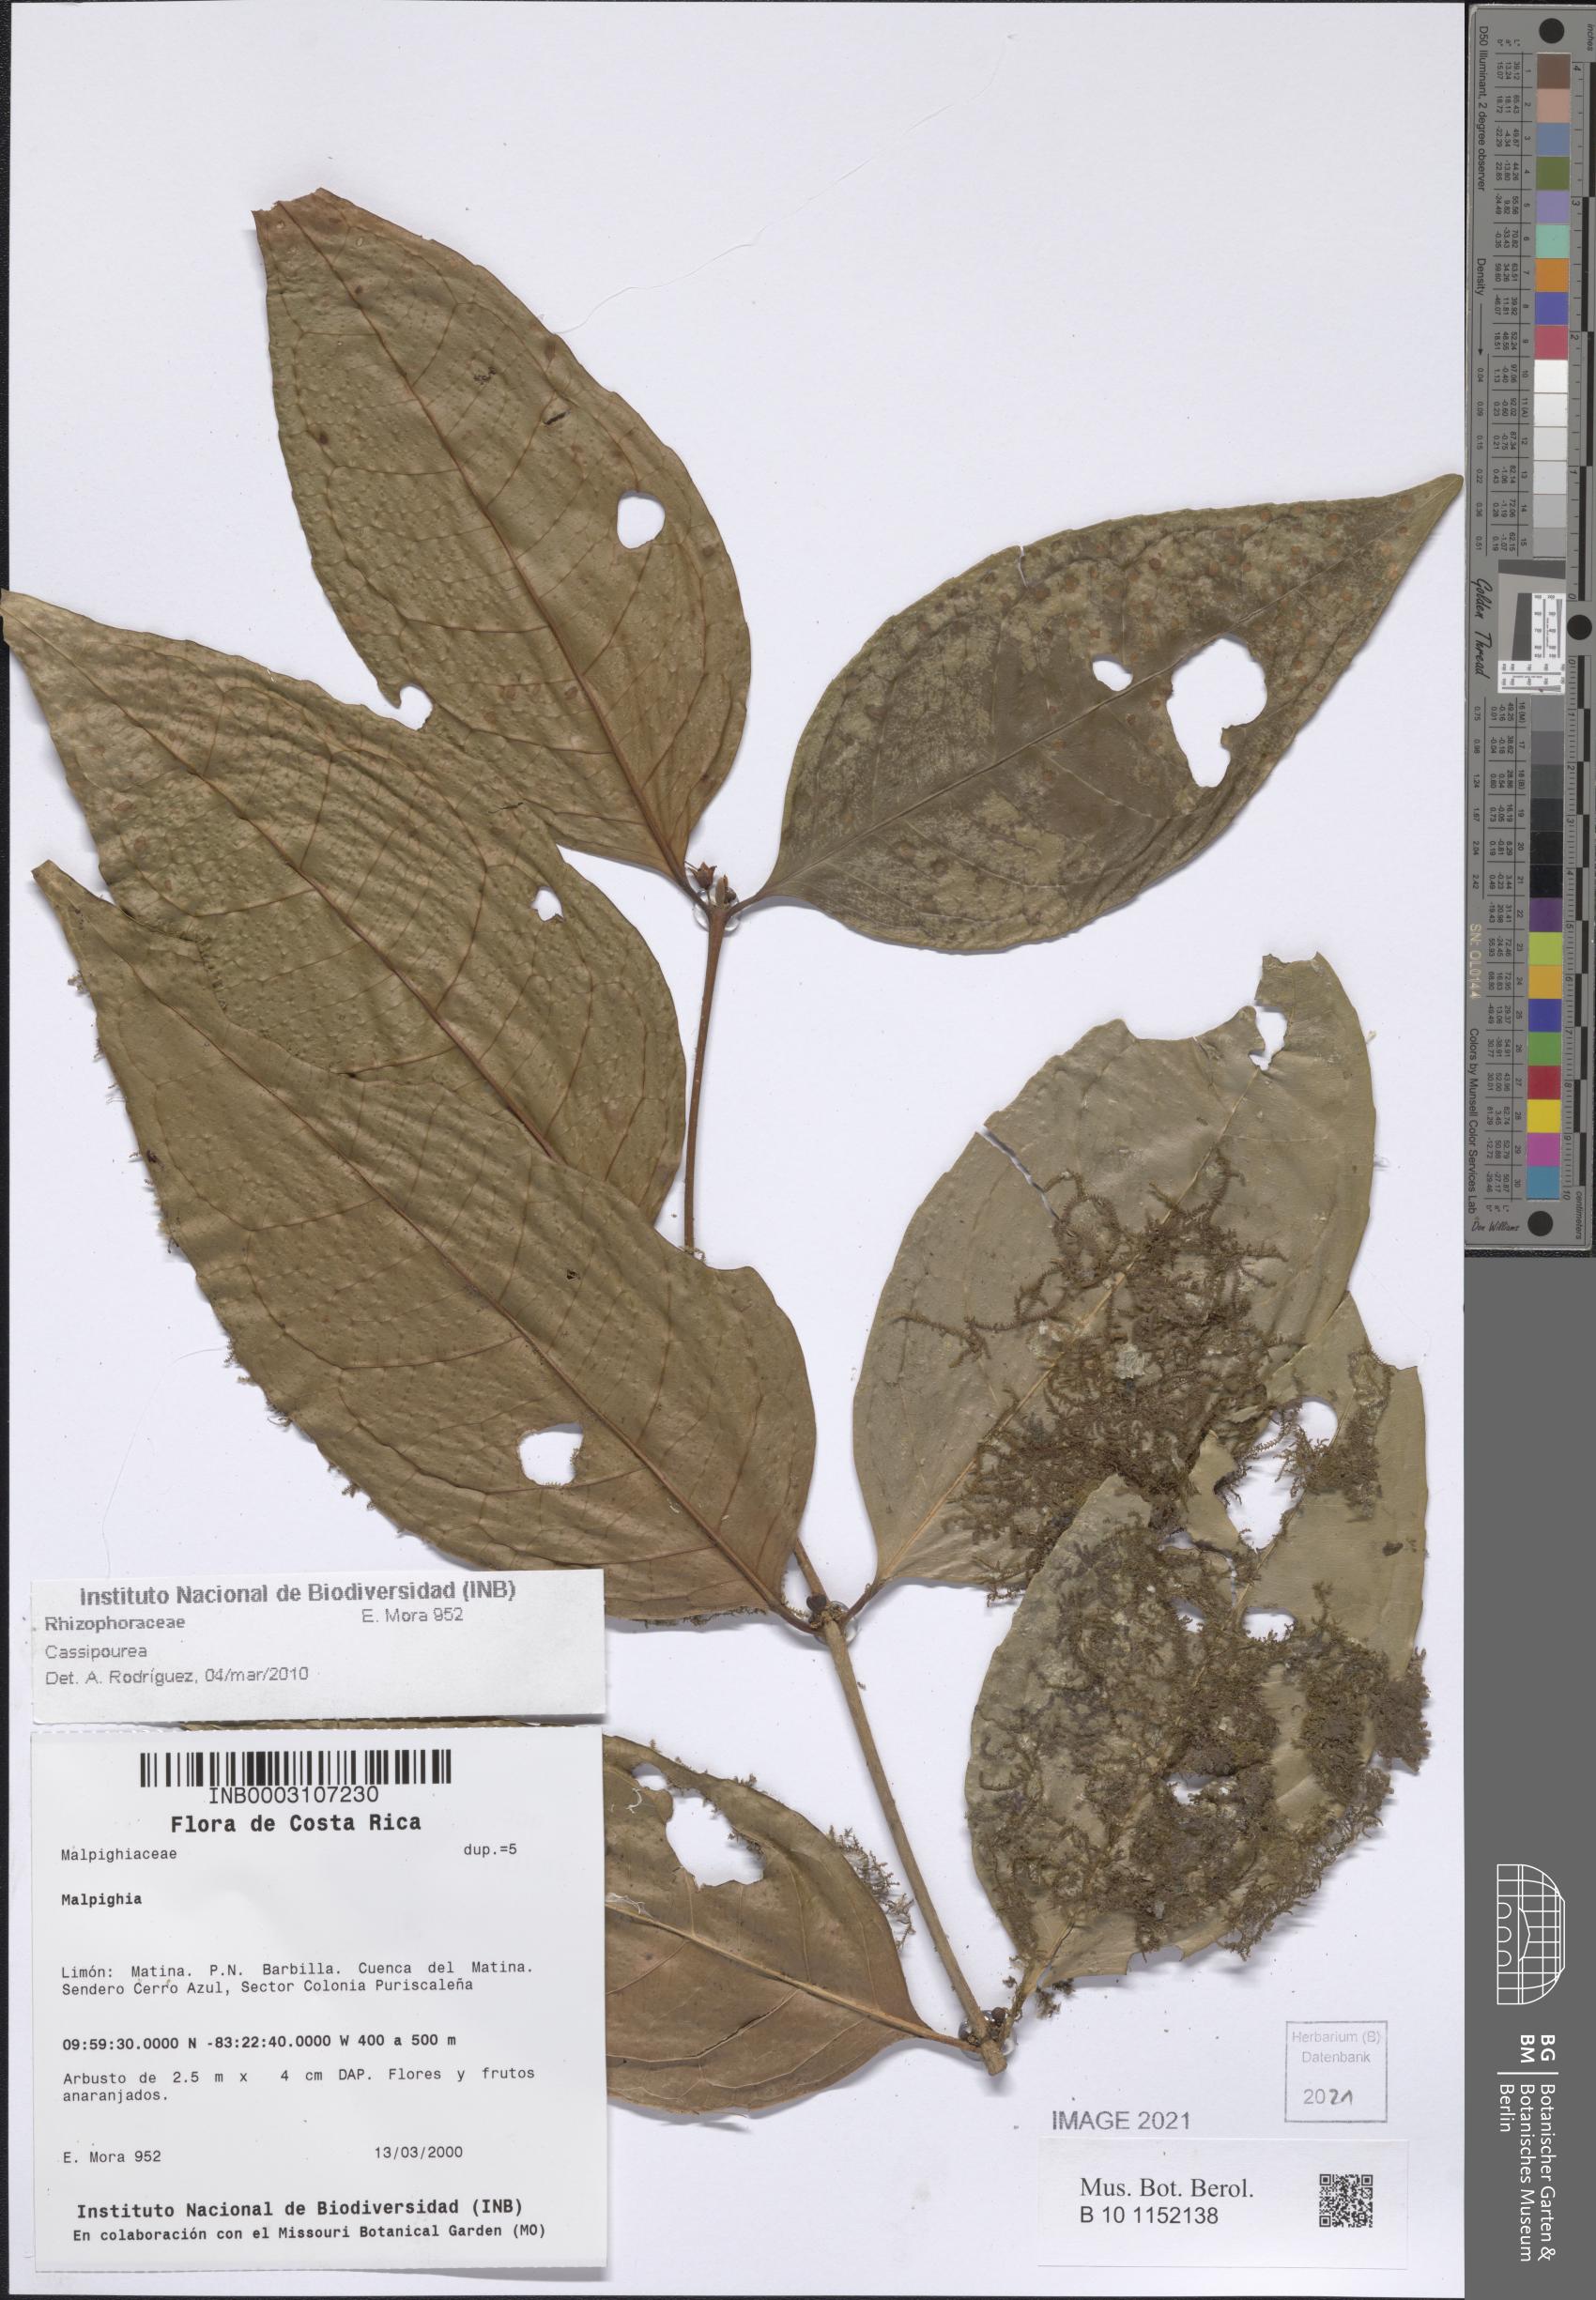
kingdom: Plantae
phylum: Tracheophyta
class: Magnoliopsida
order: Malpighiales
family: Rhizophoraceae
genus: Cassipourea
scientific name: Cassipourea
